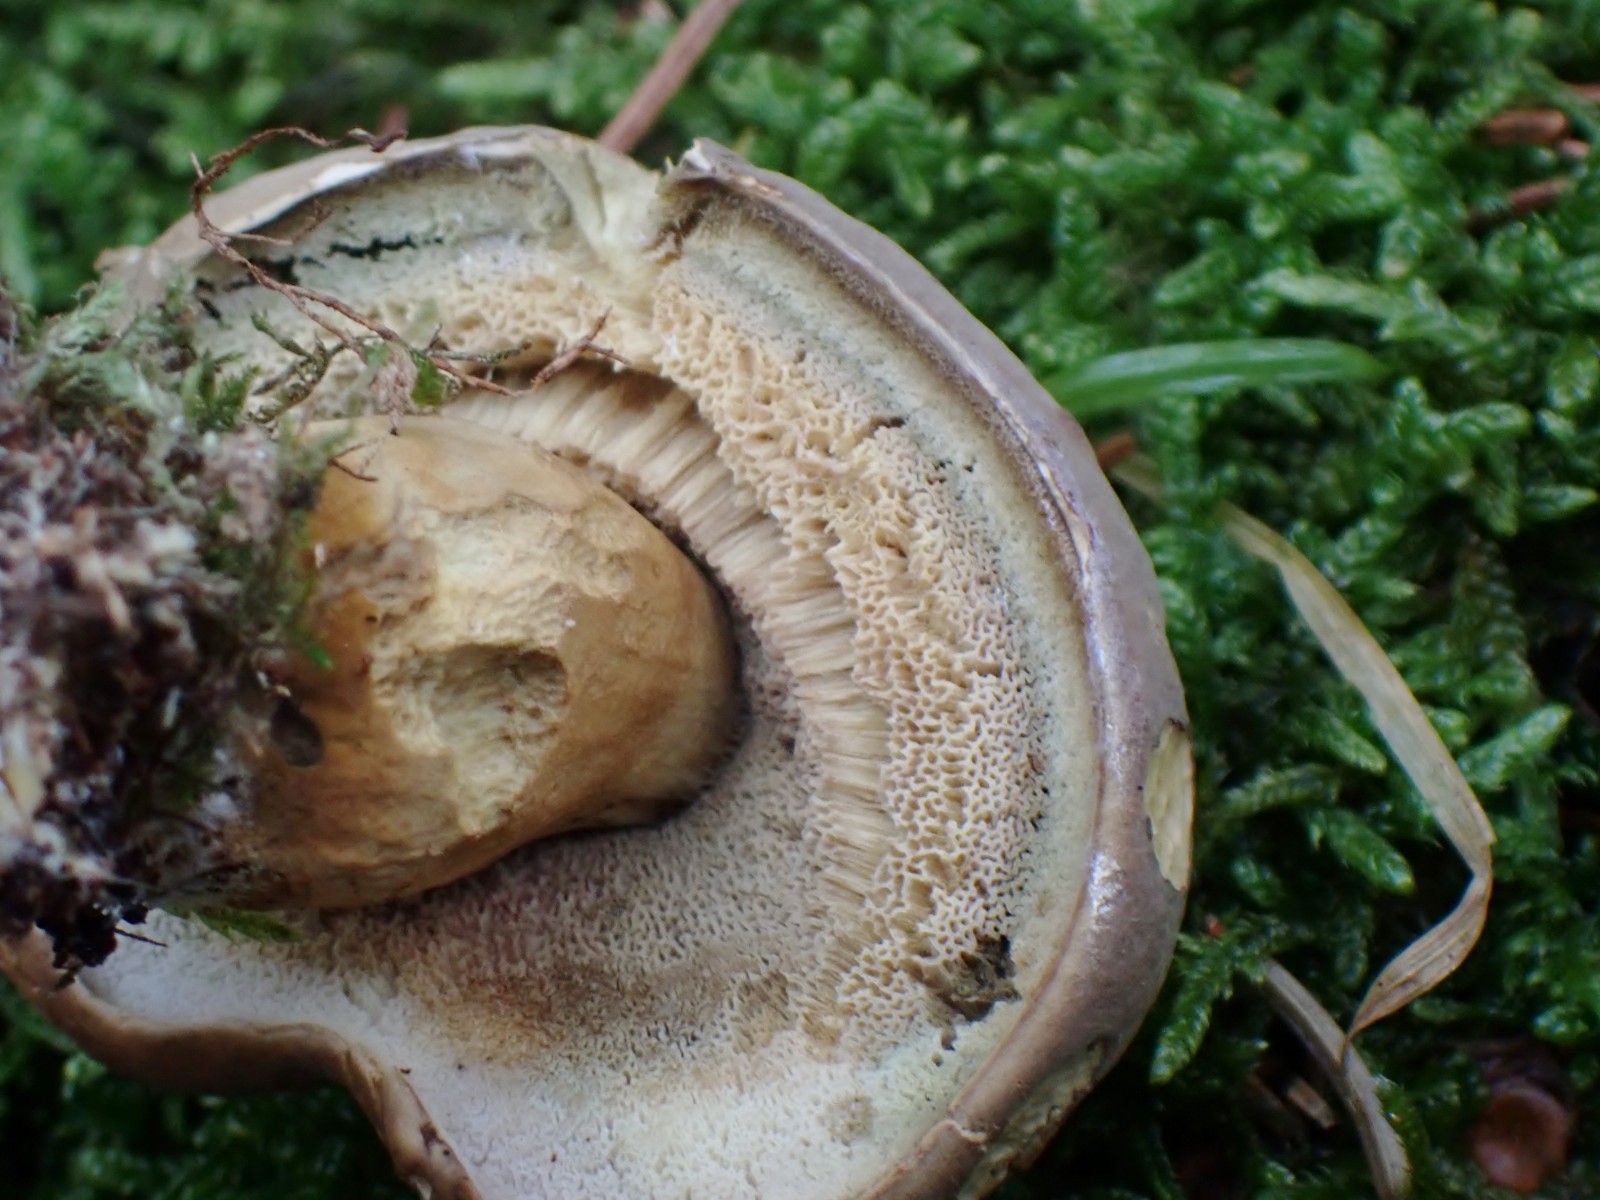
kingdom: Fungi
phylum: Basidiomycota
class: Agaricomycetes
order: Boletales
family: Boletaceae
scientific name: Boletaceae
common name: rørhatfamilien
